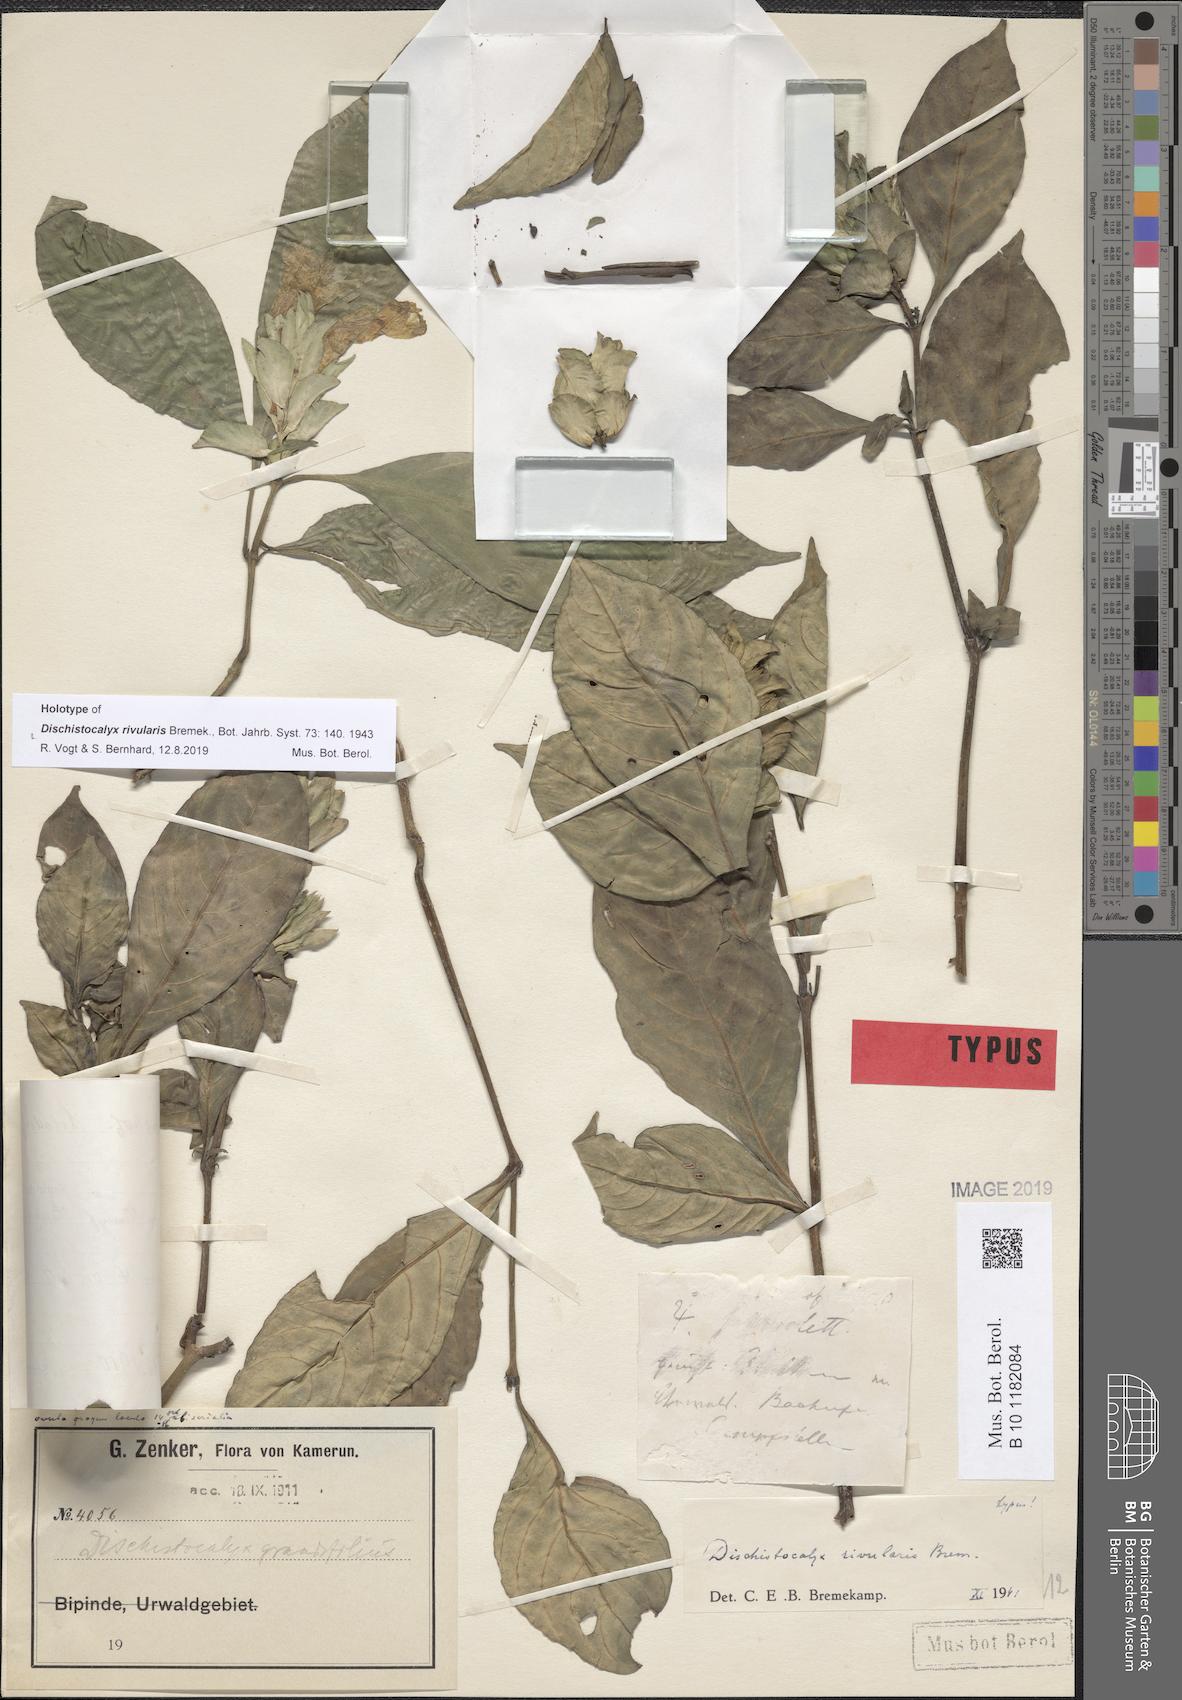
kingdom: Plantae
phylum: Tracheophyta
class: Magnoliopsida
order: Lamiales
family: Acanthaceae
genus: Dischistocalyx
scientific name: Dischistocalyx rivularis
